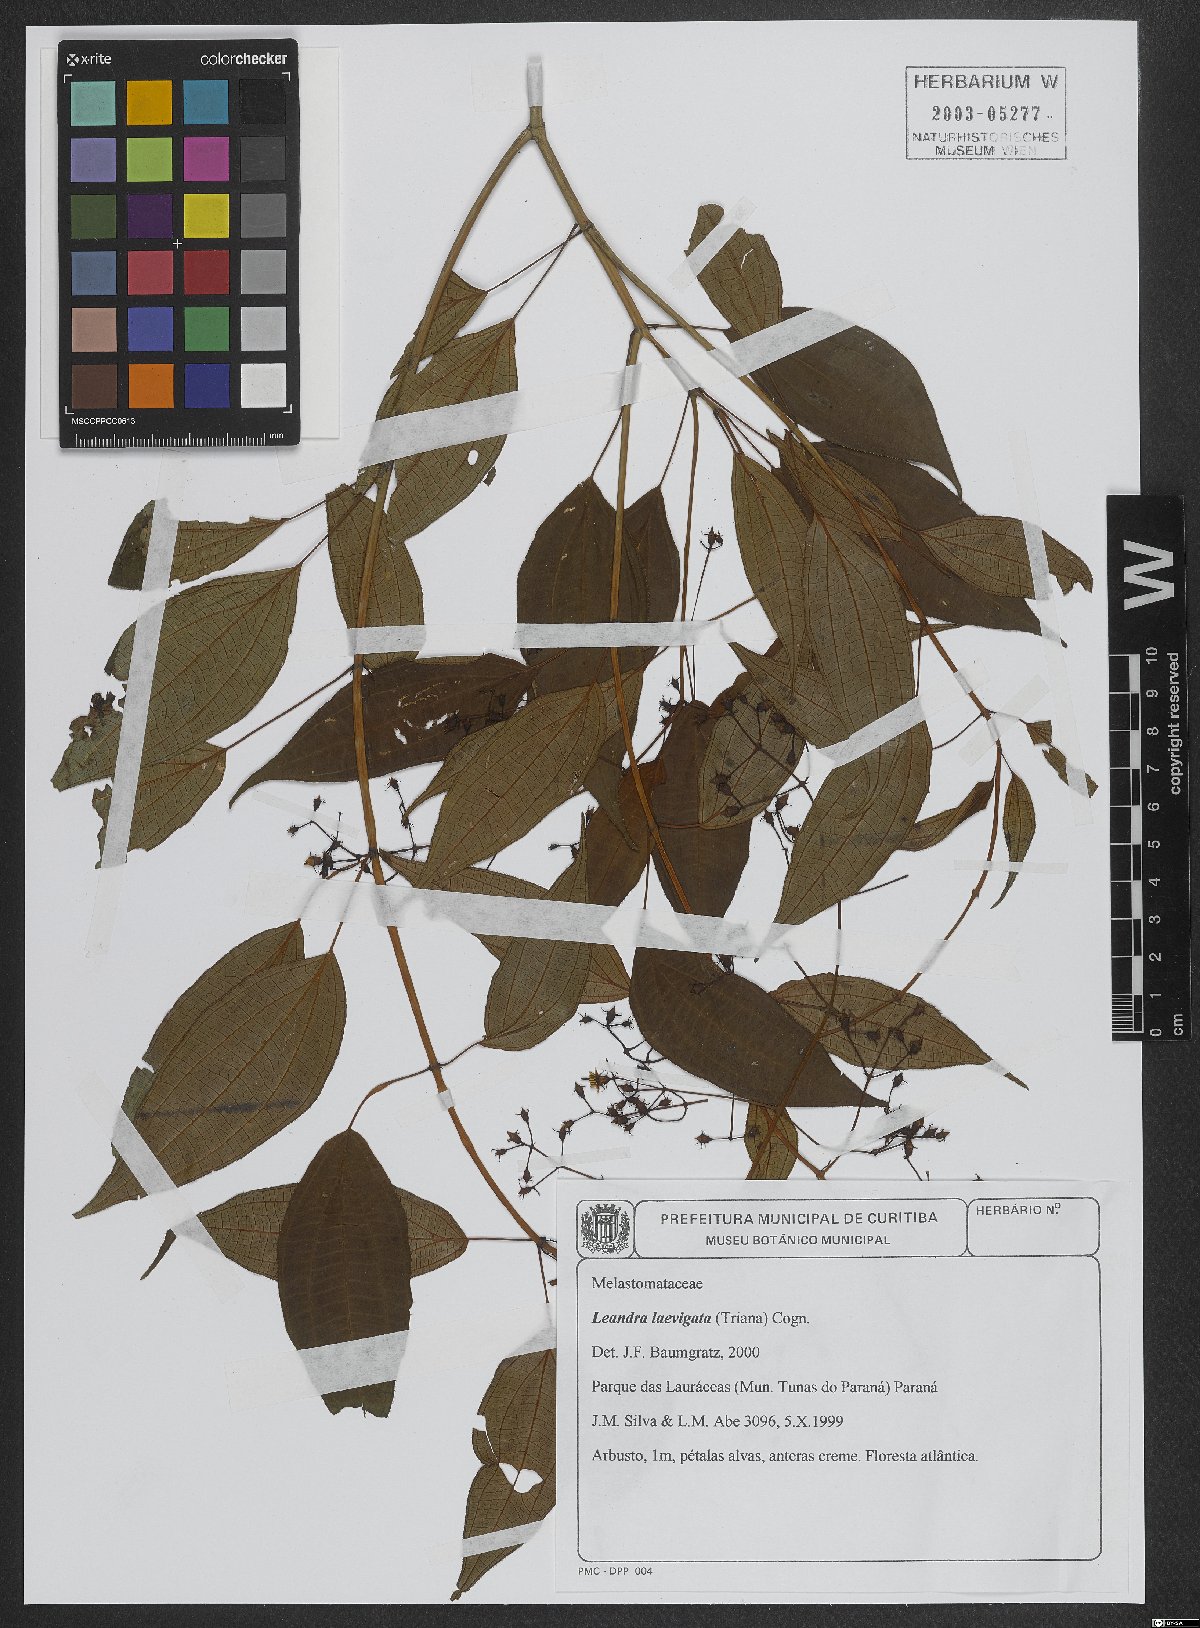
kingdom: Plantae
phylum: Tracheophyta
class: Magnoliopsida
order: Myrtales
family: Melastomataceae
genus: Miconia
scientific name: Miconia ciliolata
